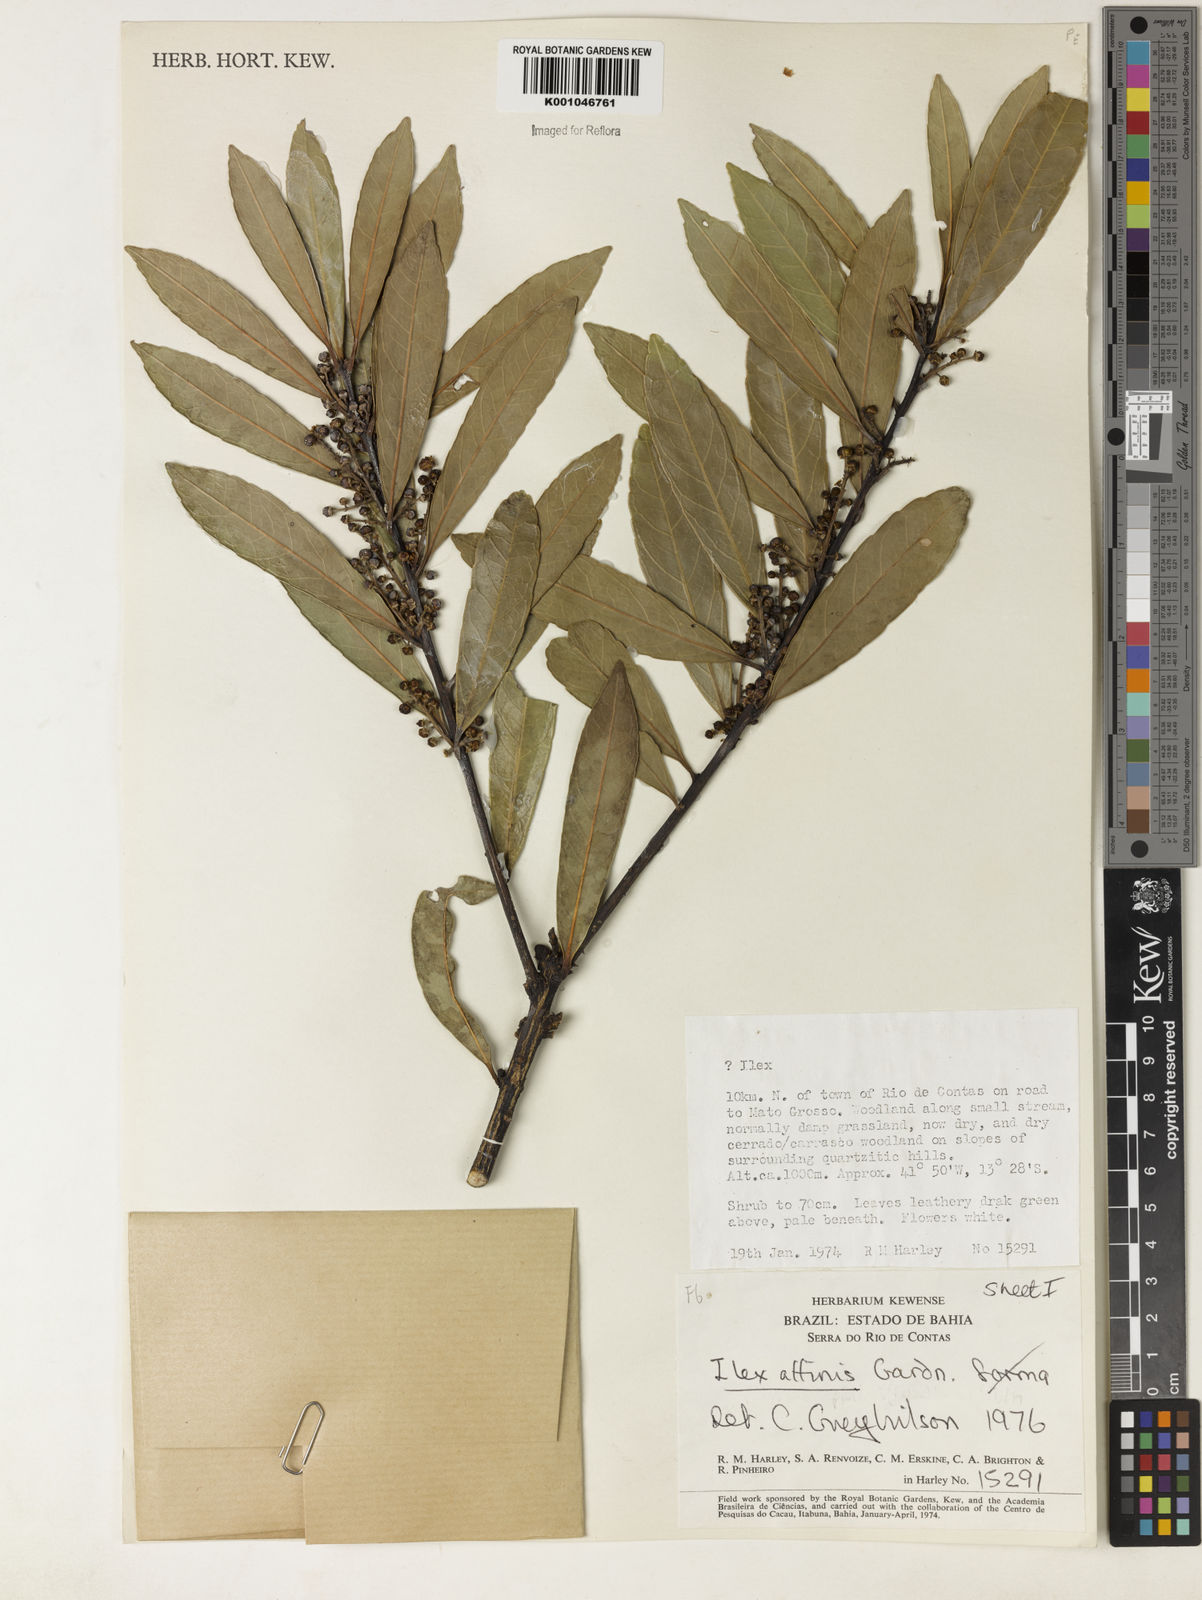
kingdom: Plantae
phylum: Tracheophyta
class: Magnoliopsida
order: Aquifoliales
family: Aquifoliaceae
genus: Ilex
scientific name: Ilex affinis
